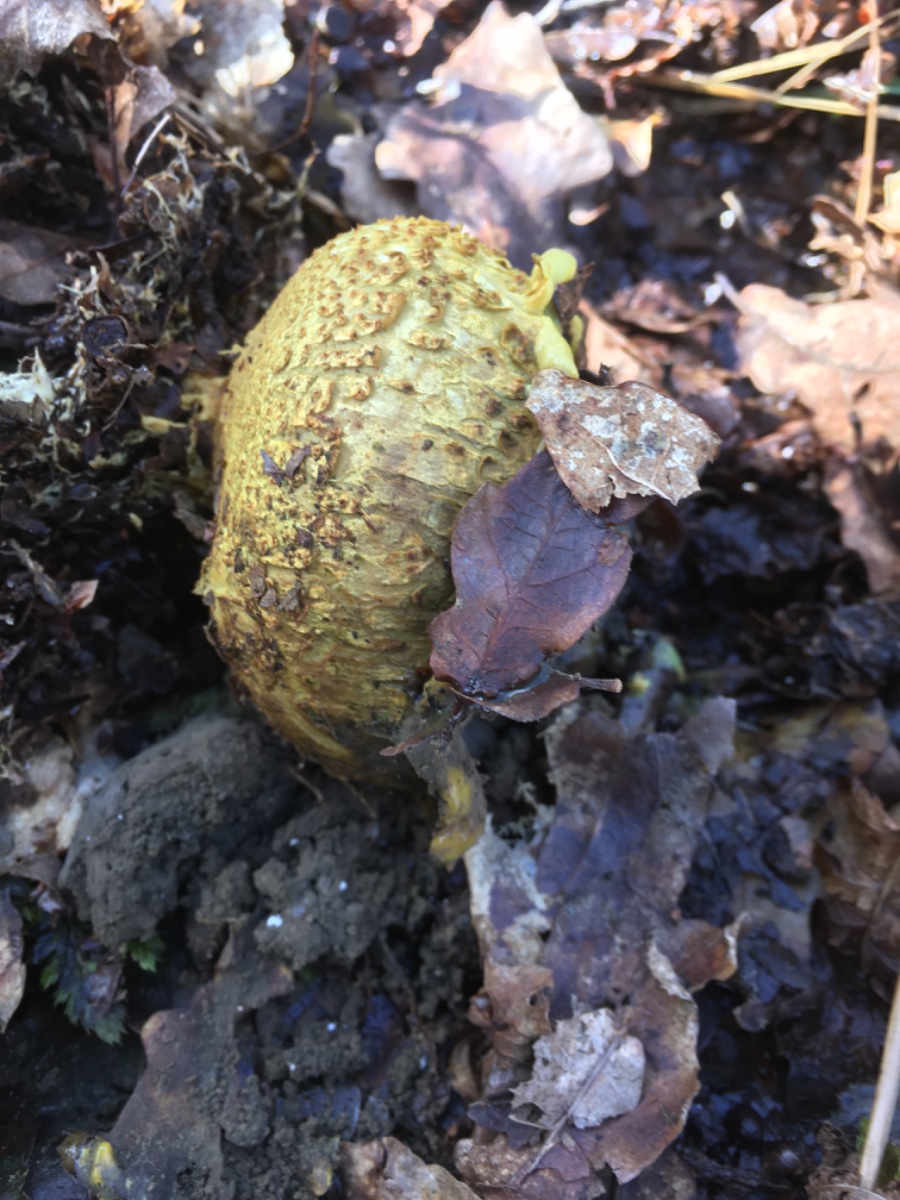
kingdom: Fungi
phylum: Basidiomycota
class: Agaricomycetes
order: Boletales
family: Sclerodermataceae
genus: Scleroderma
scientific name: Scleroderma citrinum
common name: almindelig bruskbold
